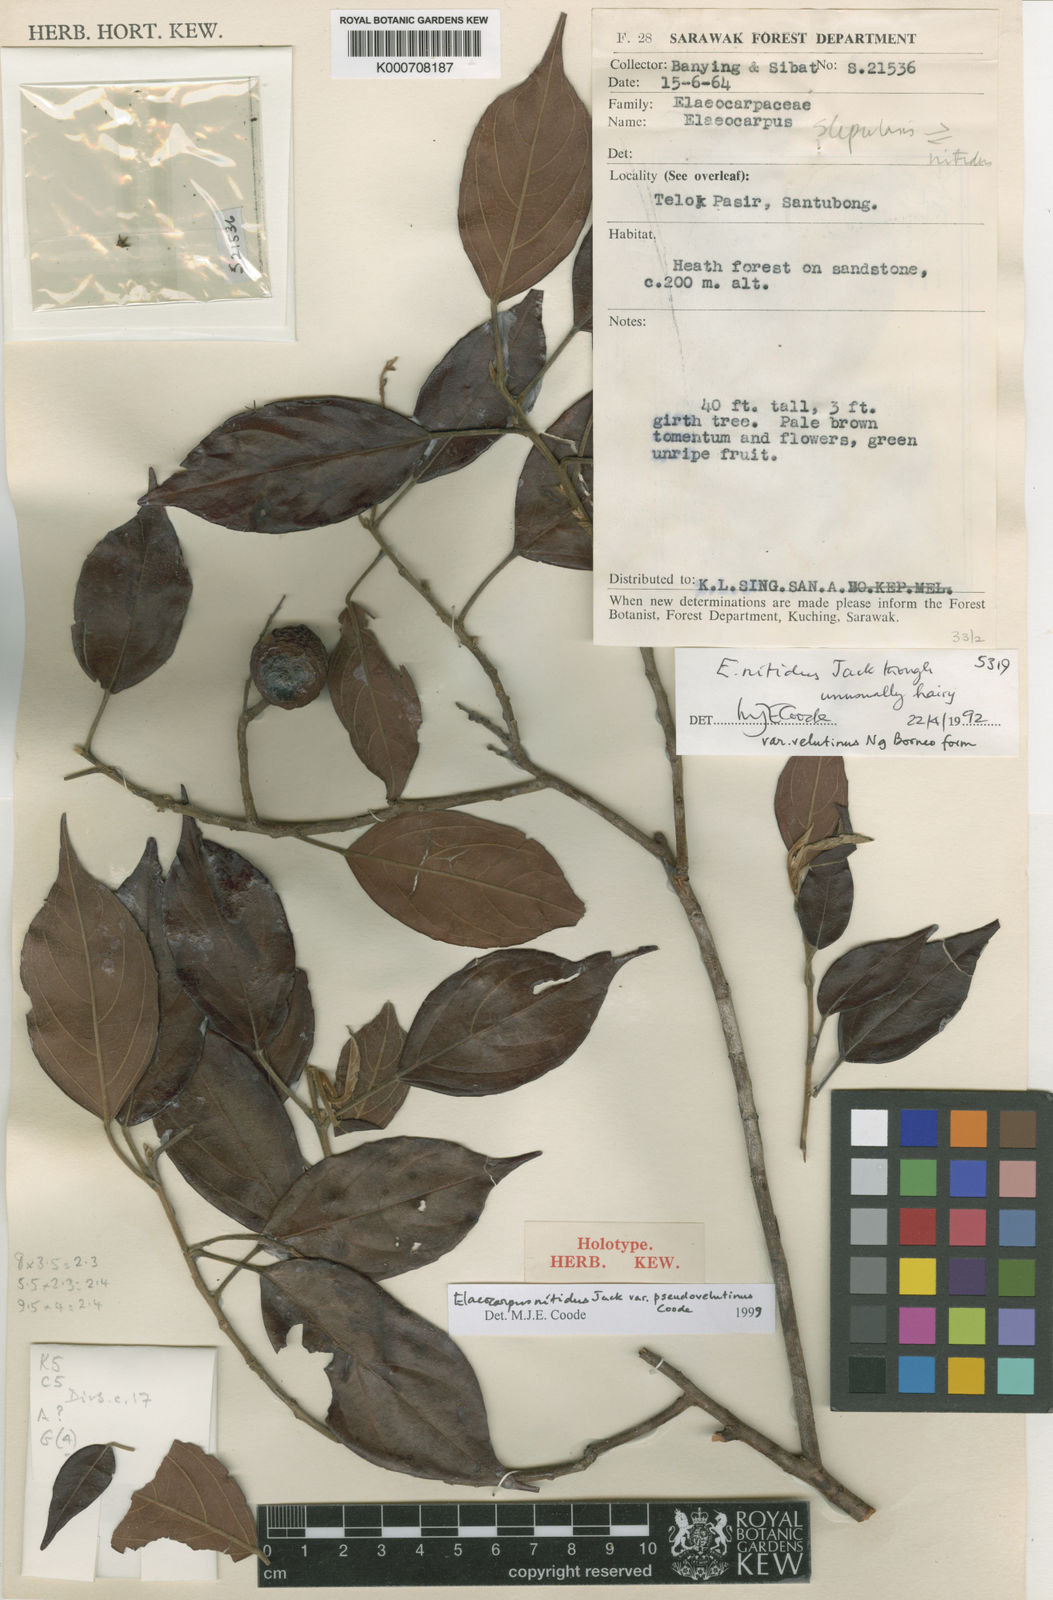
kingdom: Plantae
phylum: Tracheophyta
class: Magnoliopsida
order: Oxalidales
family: Elaeocarpaceae
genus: Elaeocarpus
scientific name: Elaeocarpus nitidus
